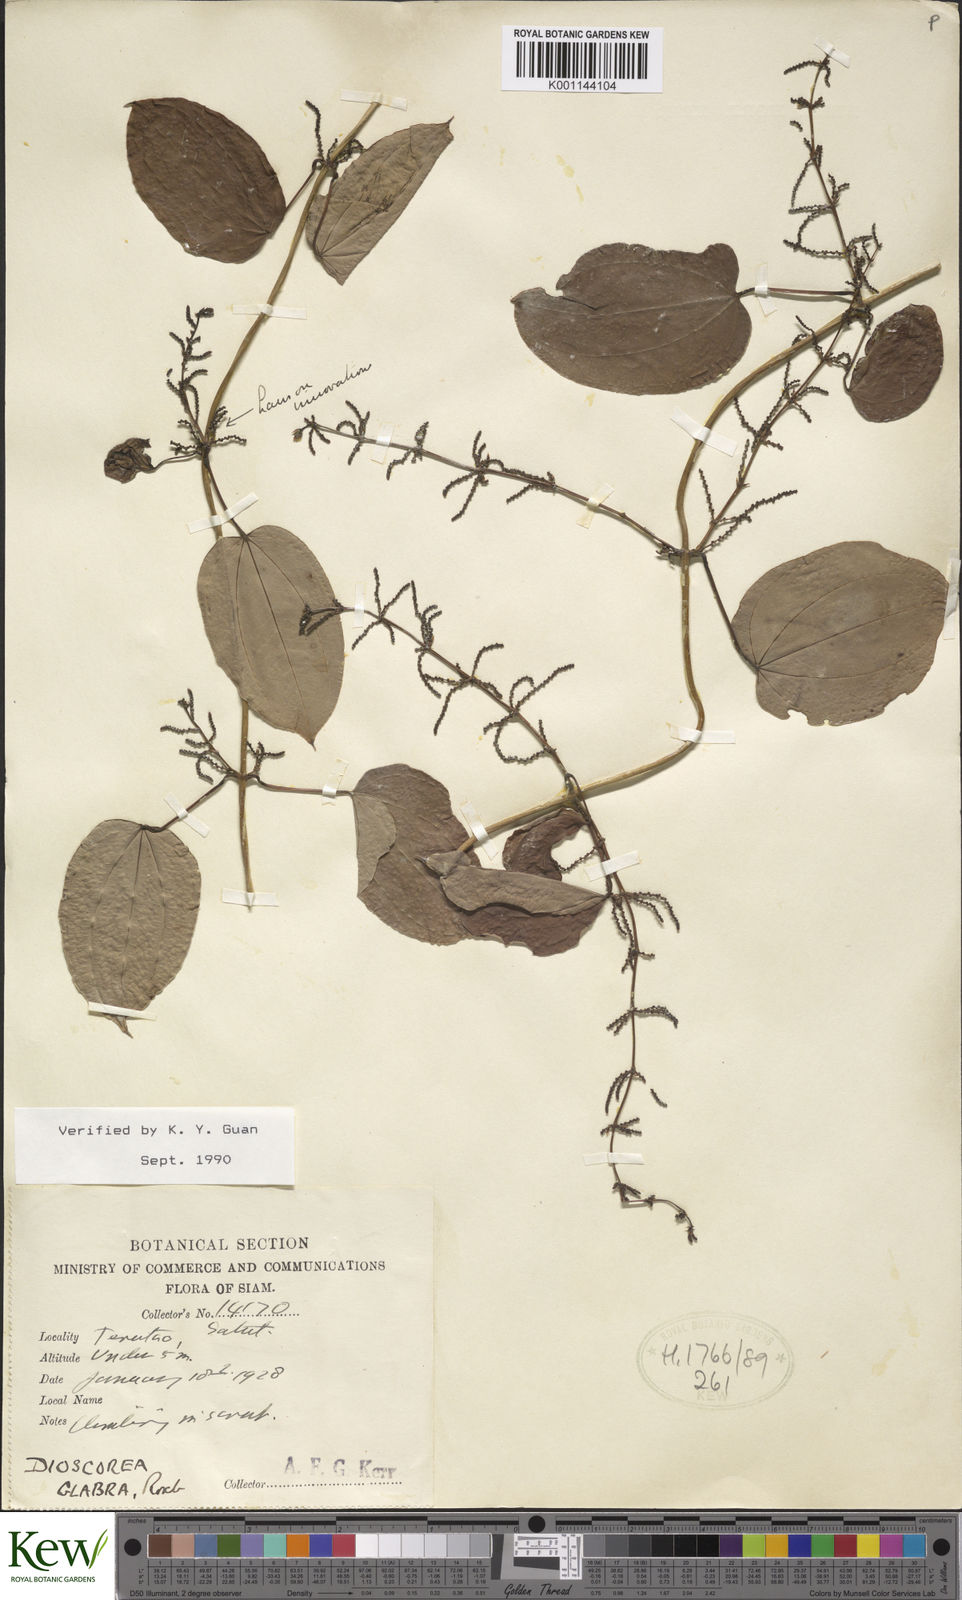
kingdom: Plantae
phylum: Tracheophyta
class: Liliopsida
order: Dioscoreales
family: Dioscoreaceae
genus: Dioscorea
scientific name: Dioscorea glabra
